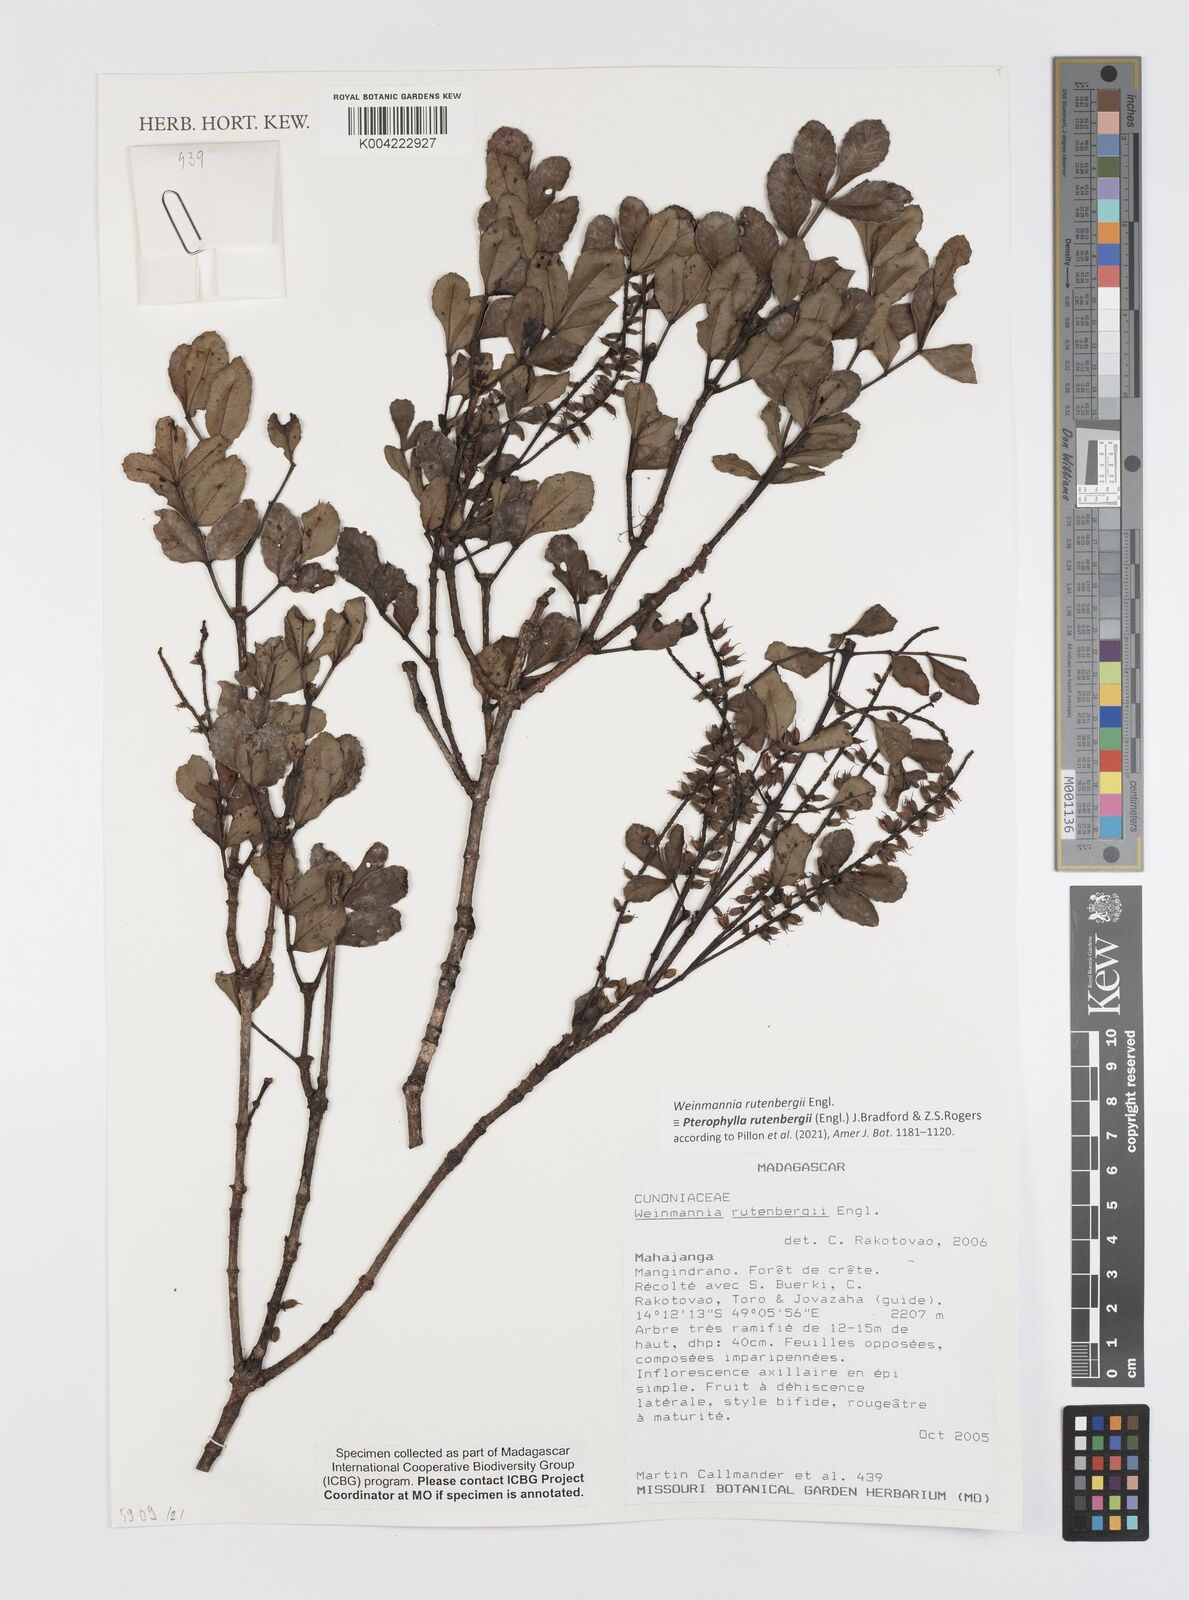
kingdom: Plantae
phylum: Tracheophyta
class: Magnoliopsida
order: Oxalidales
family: Cunoniaceae
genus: Pterophylla
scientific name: Pterophylla rutenbergii
